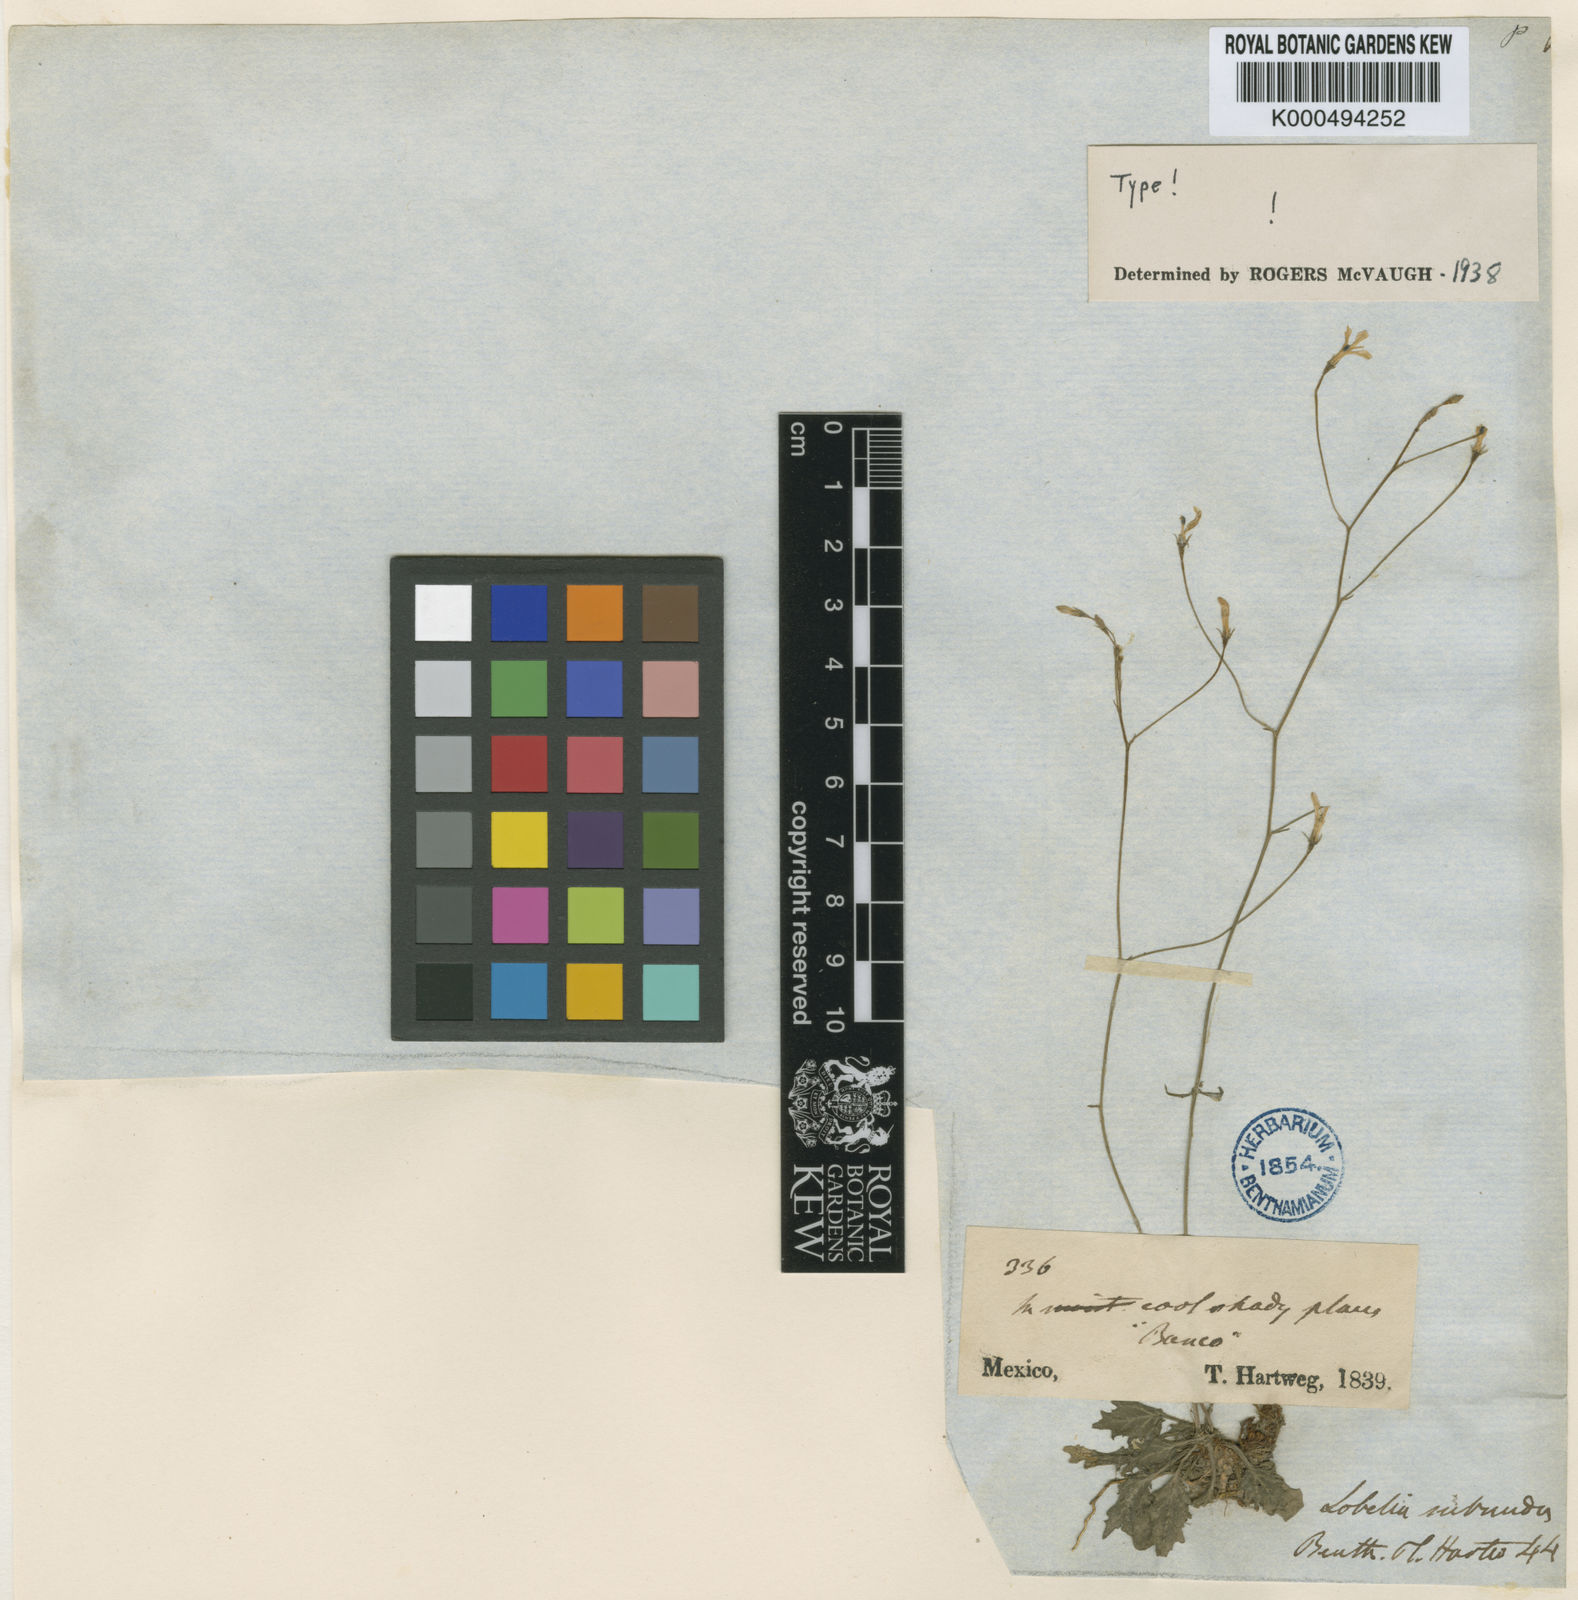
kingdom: Plantae
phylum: Tracheophyta
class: Magnoliopsida
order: Asterales
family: Campanulaceae
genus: Lobelia
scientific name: Lobelia subnuda
